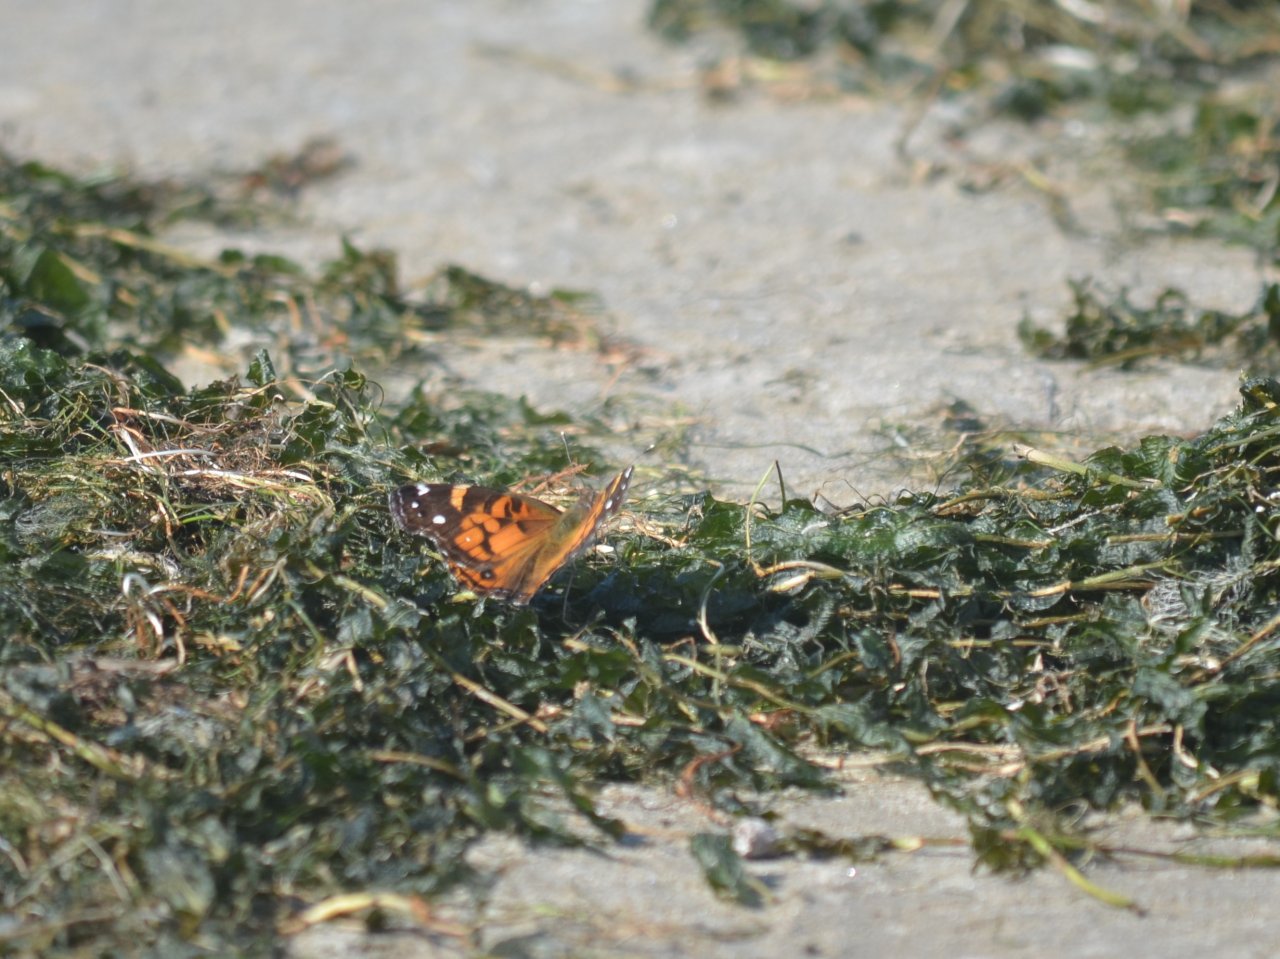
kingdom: Animalia
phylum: Arthropoda
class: Insecta
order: Lepidoptera
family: Nymphalidae
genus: Vanessa
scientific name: Vanessa virginiensis
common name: American Lady
